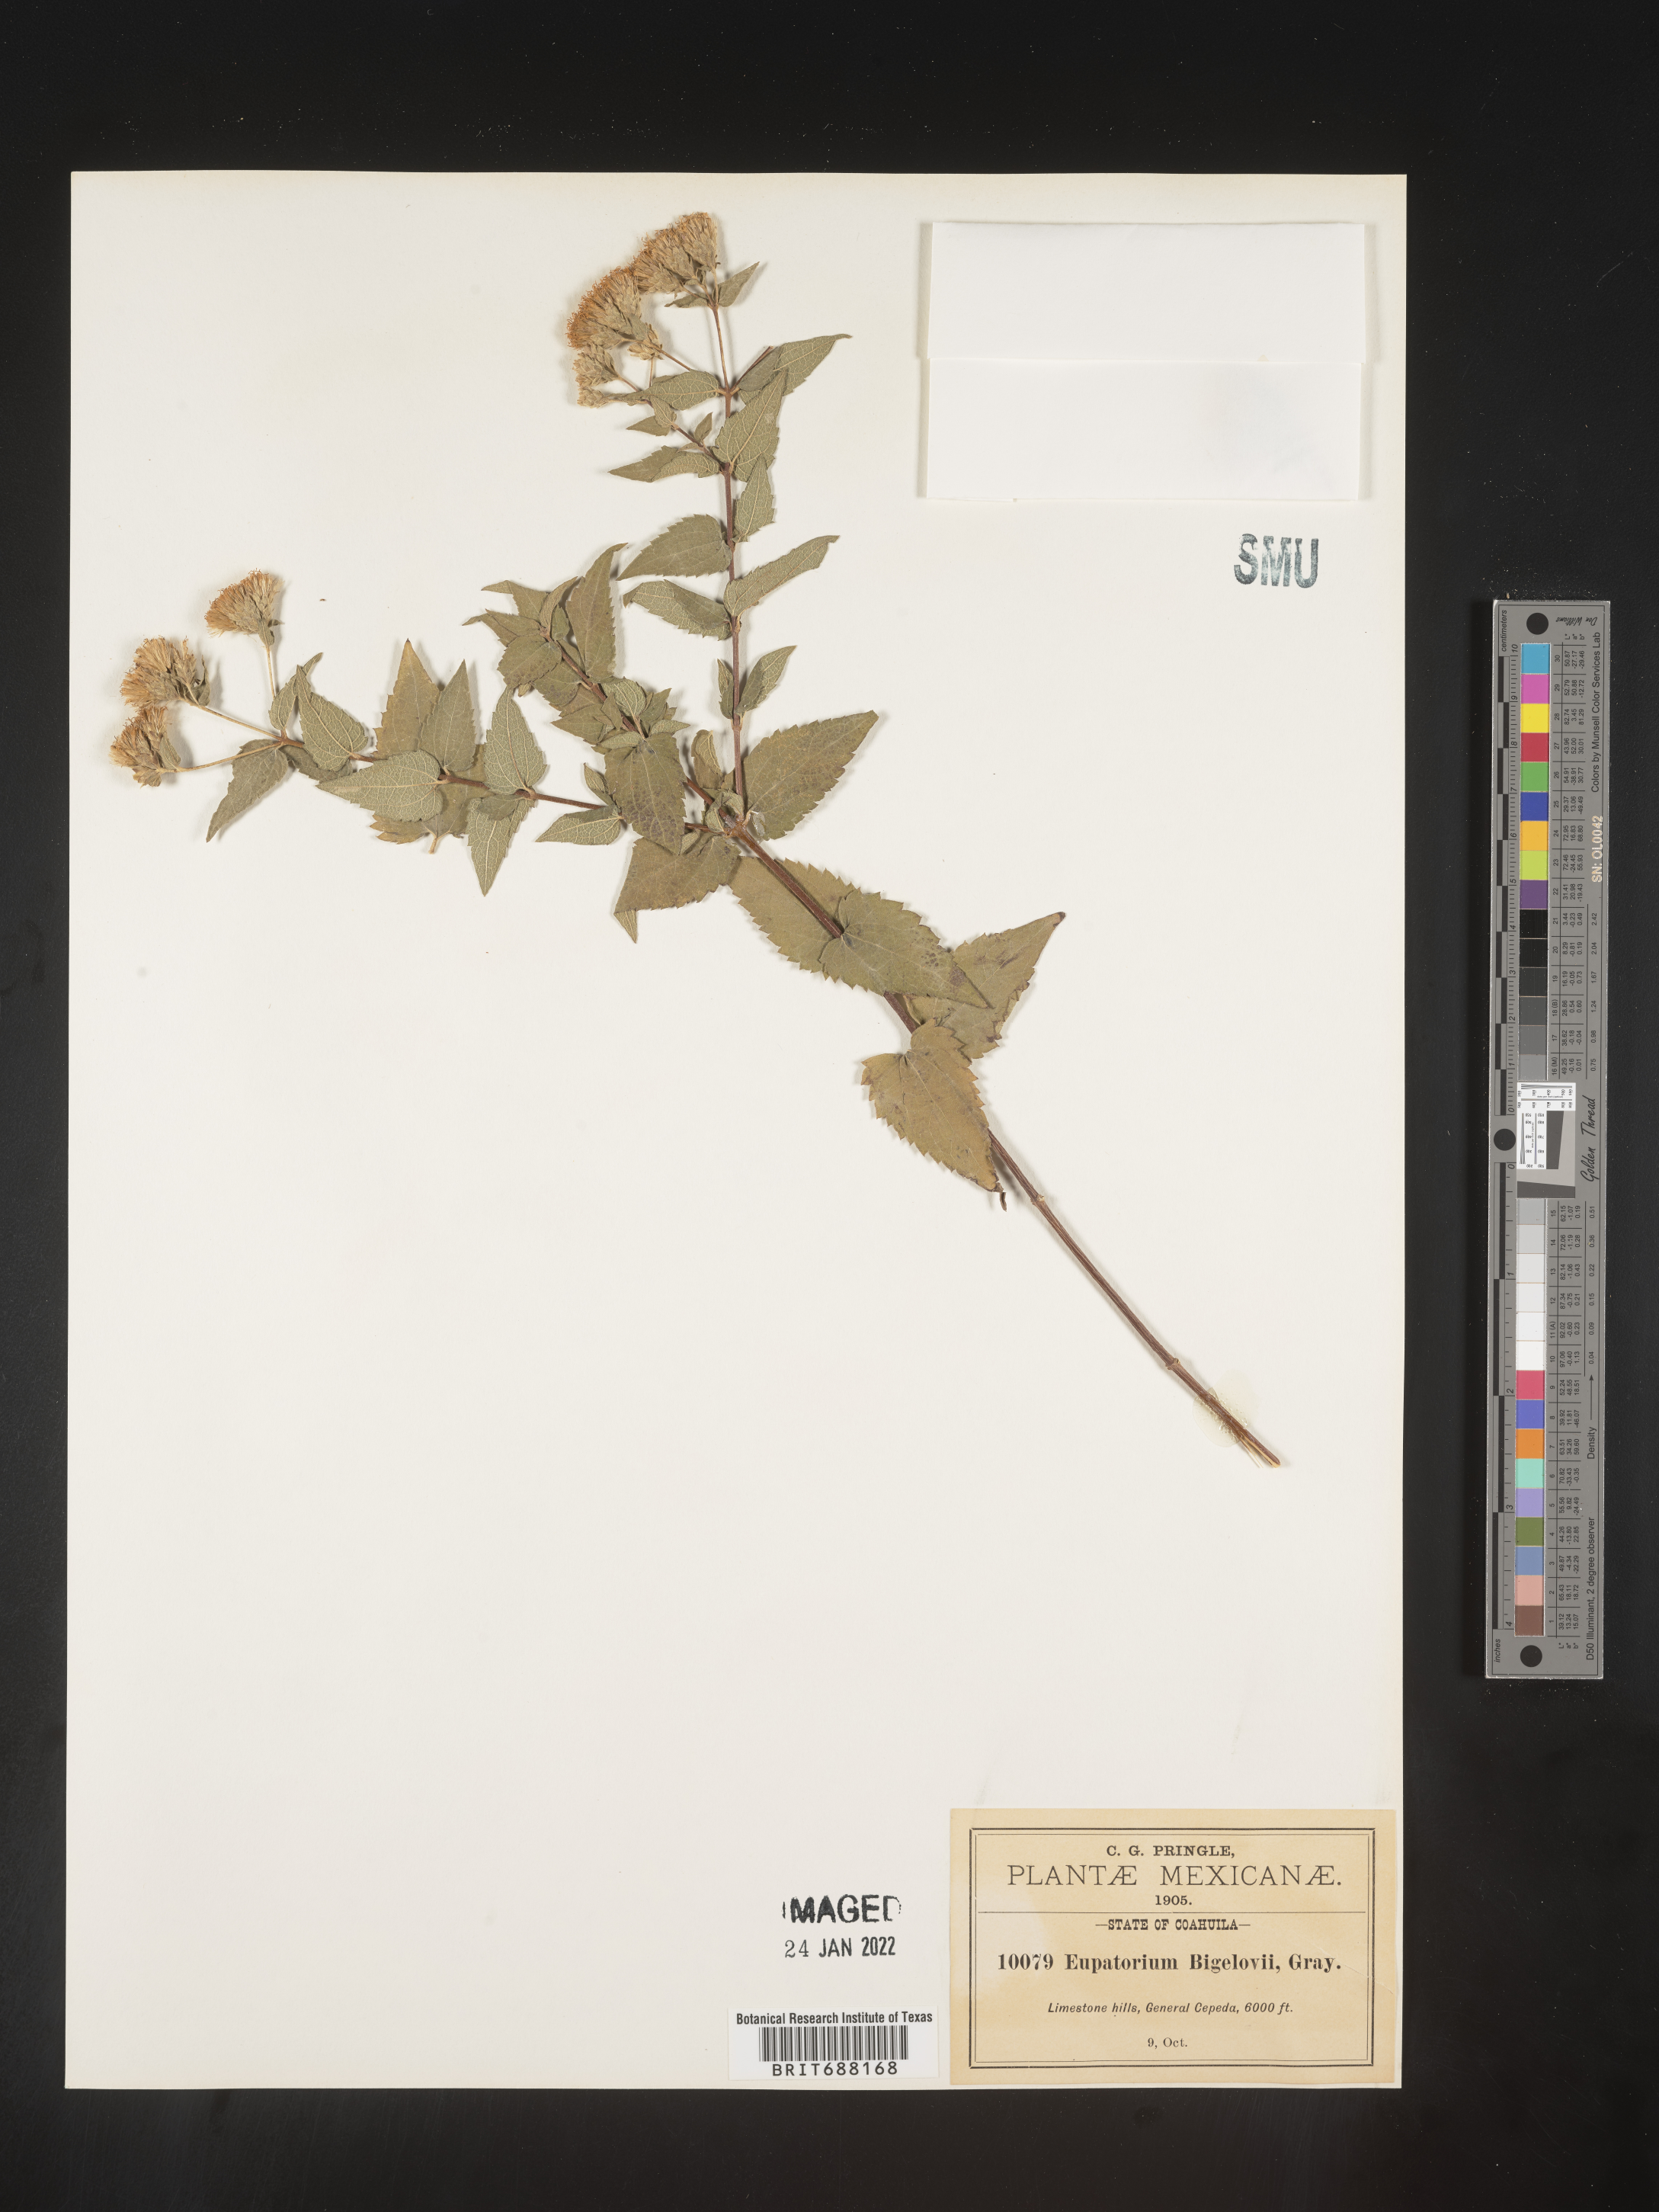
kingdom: Plantae
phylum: Tracheophyta
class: Magnoliopsida
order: Asterales
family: Asteraceae
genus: Chromolaena
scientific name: Chromolaena bigelovii
